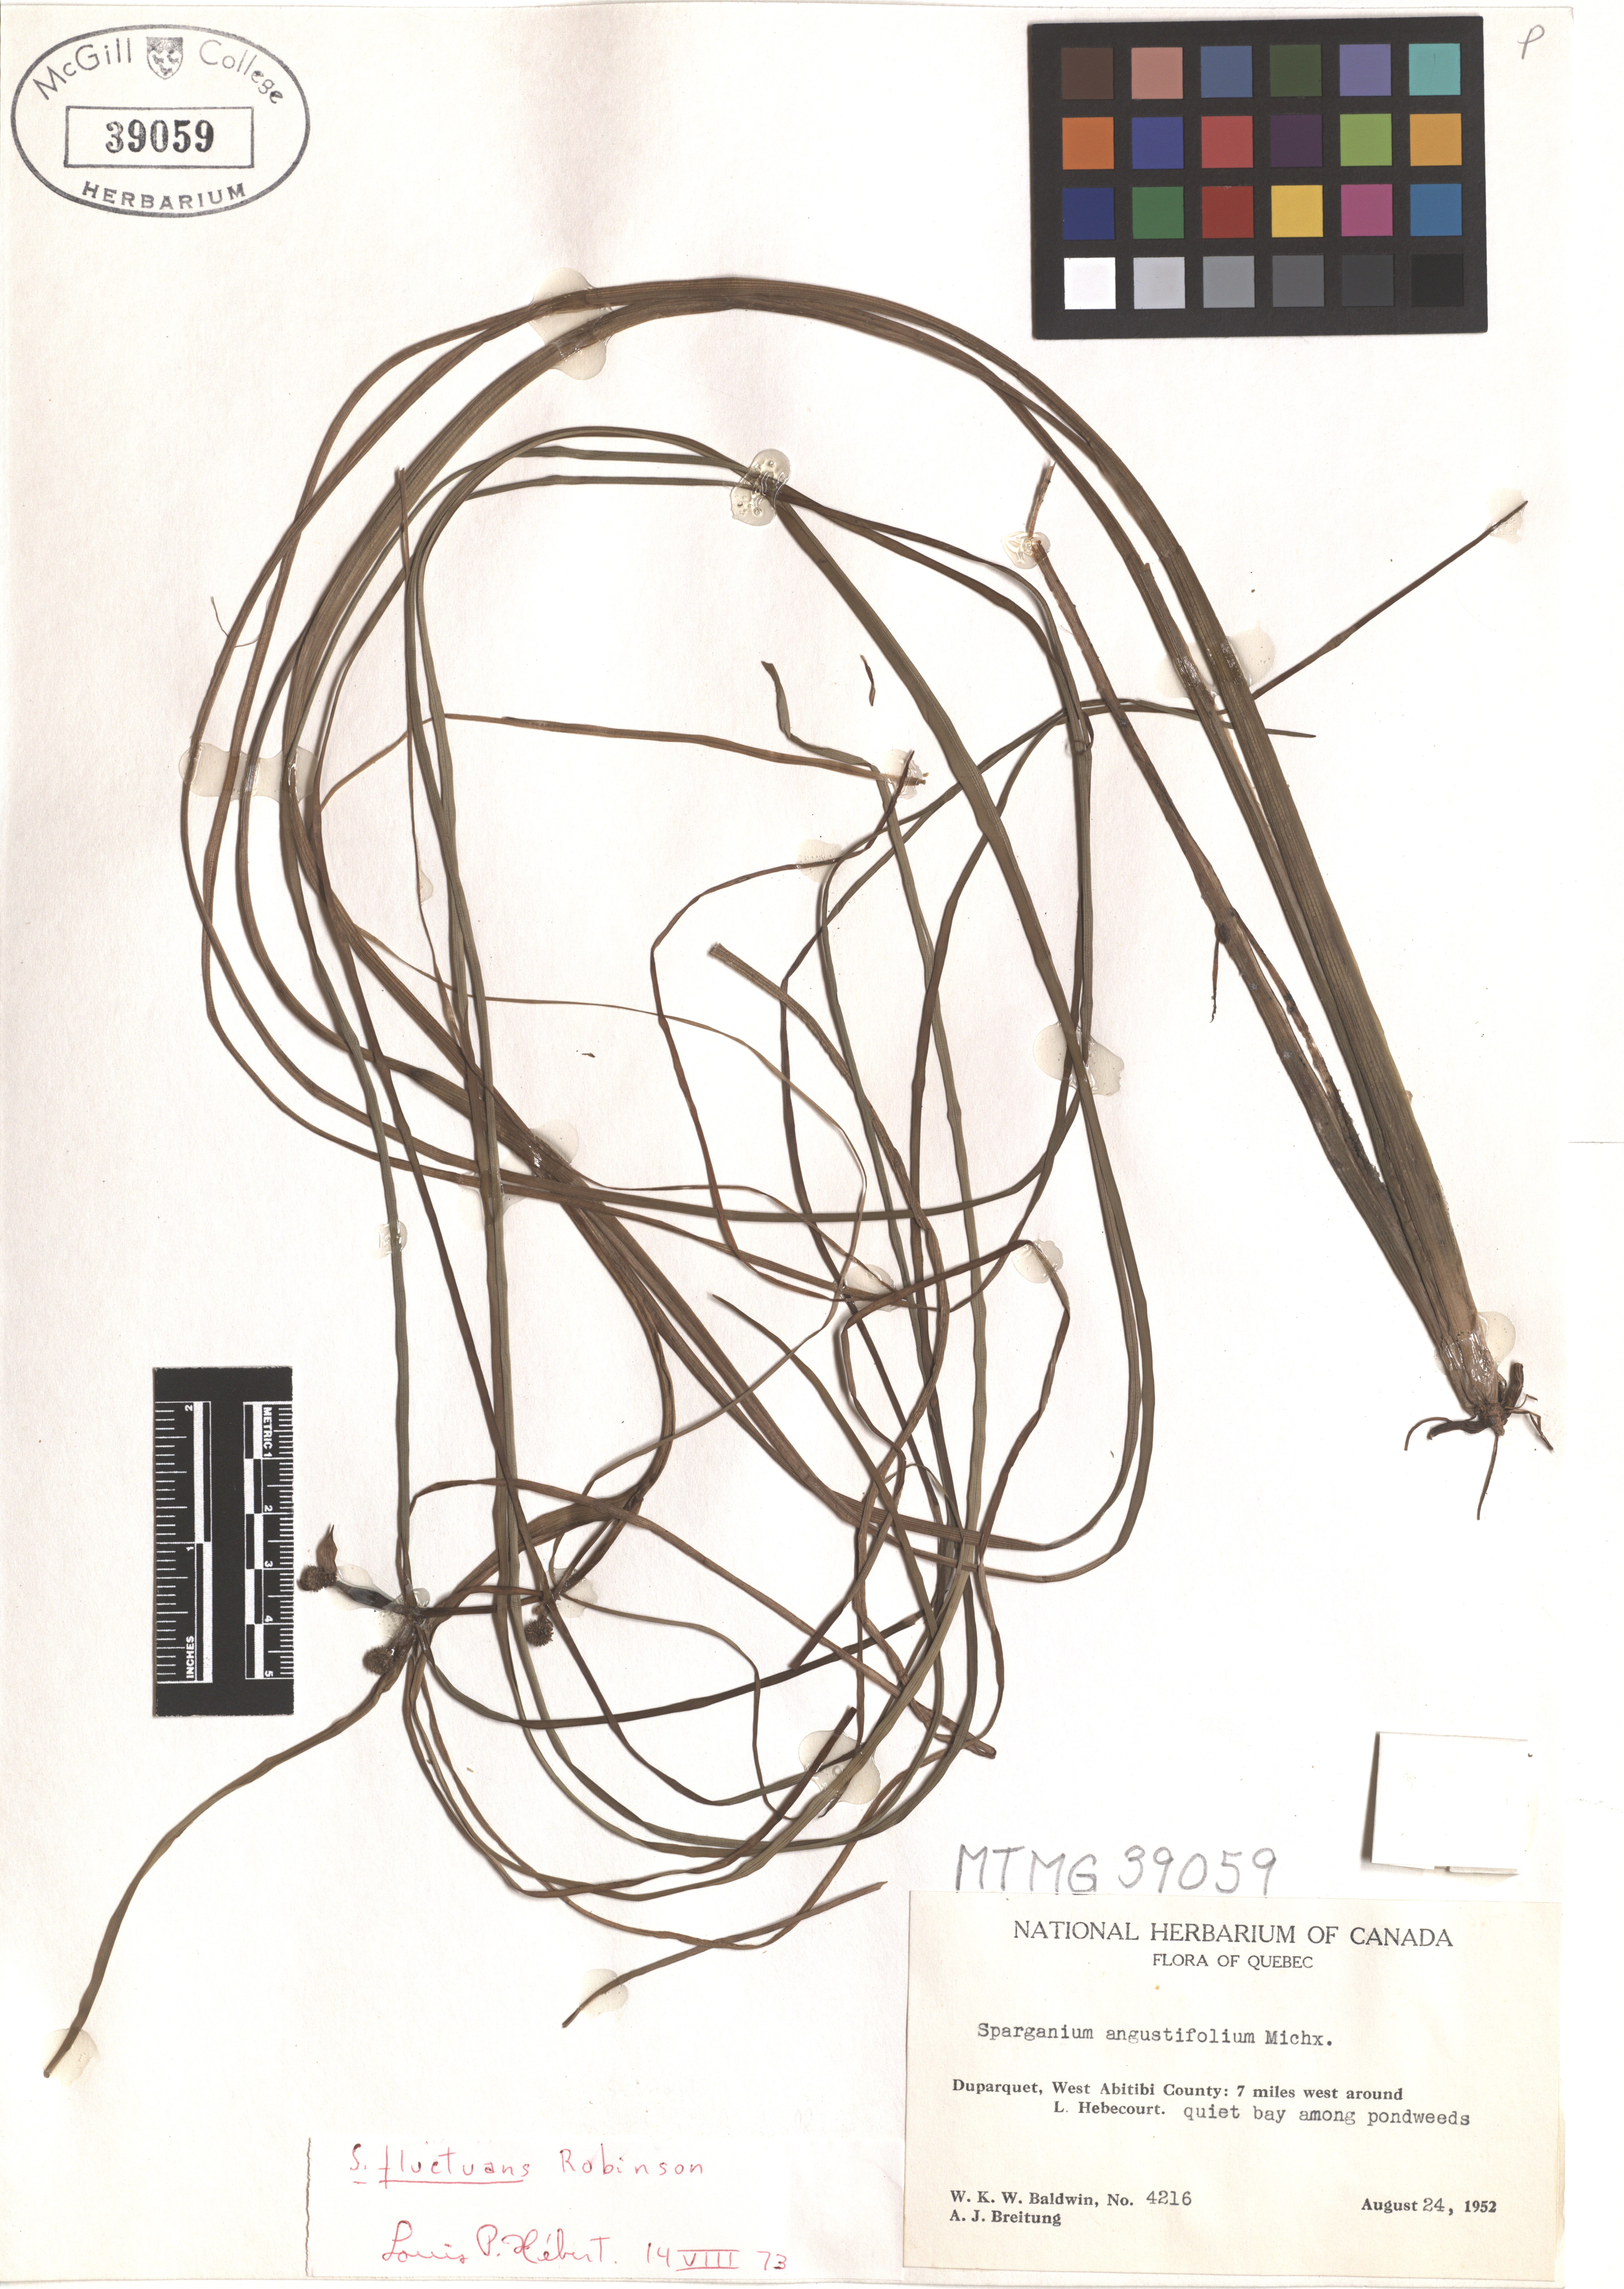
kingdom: Plantae
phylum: Tracheophyta
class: Liliopsida
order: Poales
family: Typhaceae
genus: Sparganium
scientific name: Sparganium angustifolium
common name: Floating bur-reed
